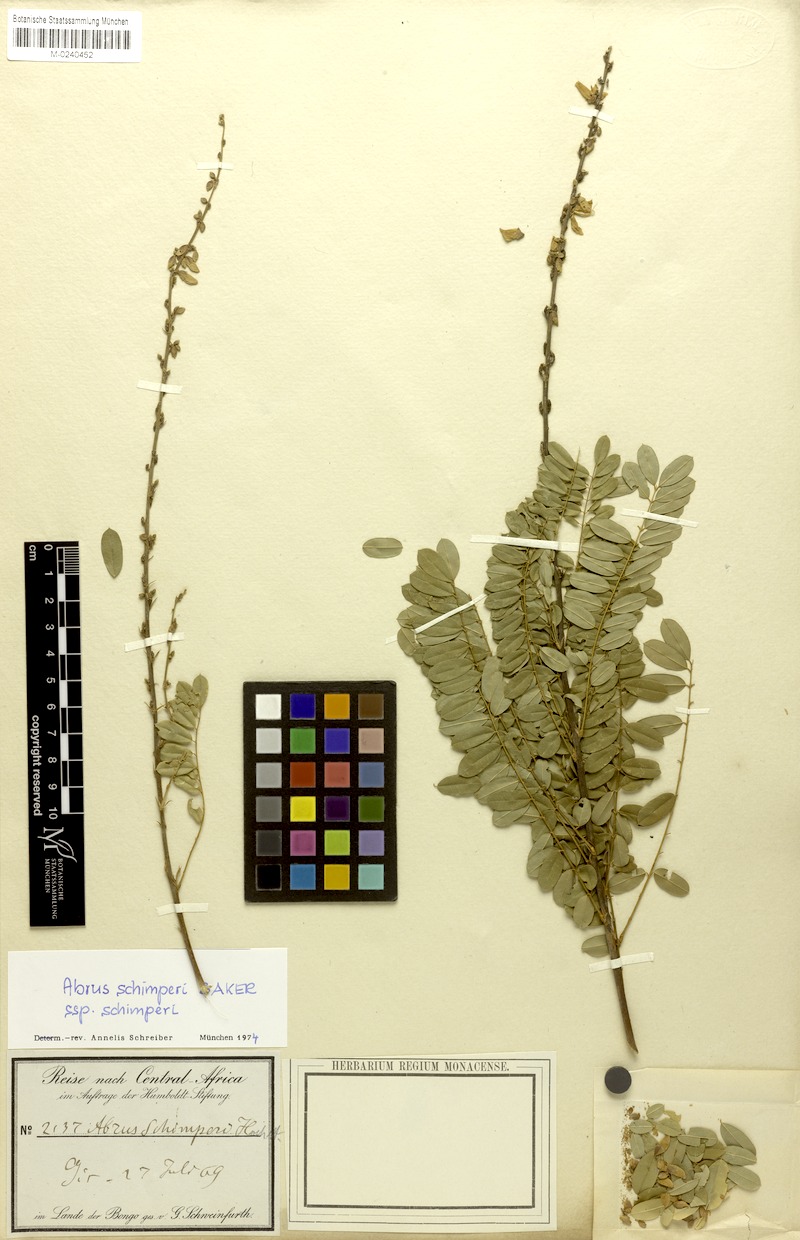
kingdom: Plantae
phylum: Tracheophyta
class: Magnoliopsida
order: Fabales
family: Fabaceae
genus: Abrus
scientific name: Abrus schimperi
